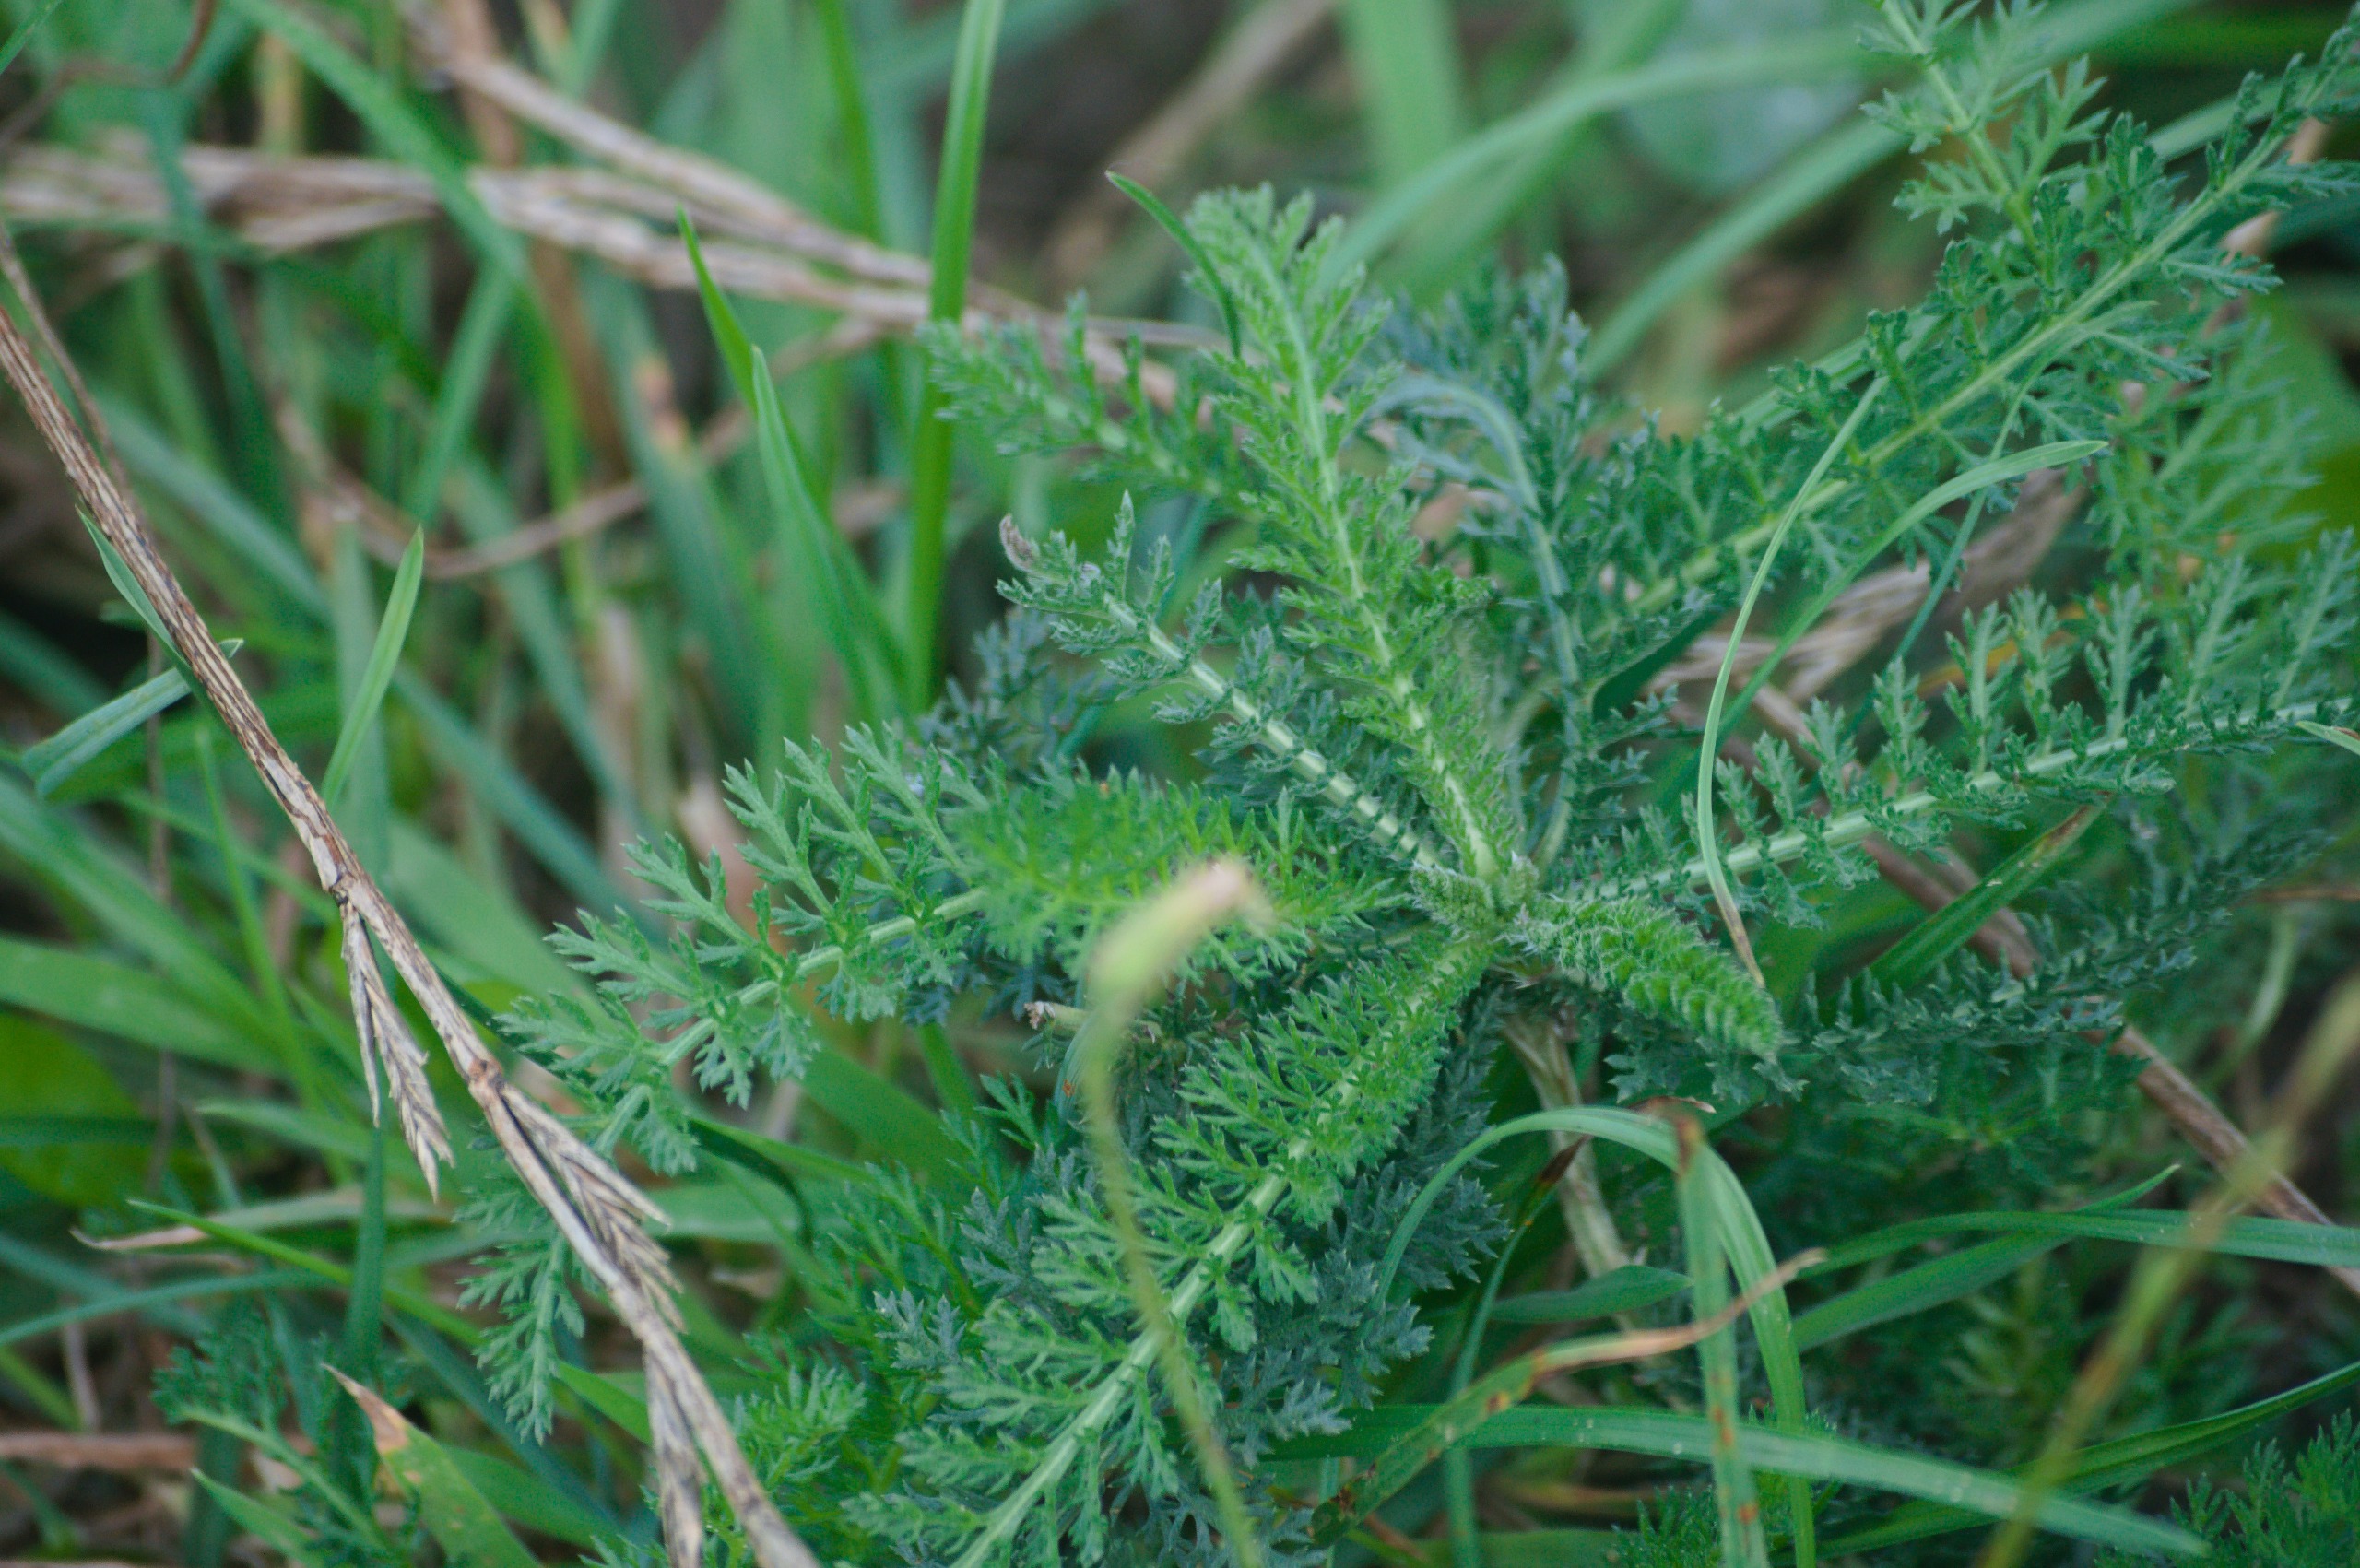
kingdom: Plantae
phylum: Tracheophyta
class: Magnoliopsida
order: Asterales
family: Asteraceae
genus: Achillea
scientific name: Achillea millefolium
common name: Almindelig røllike
